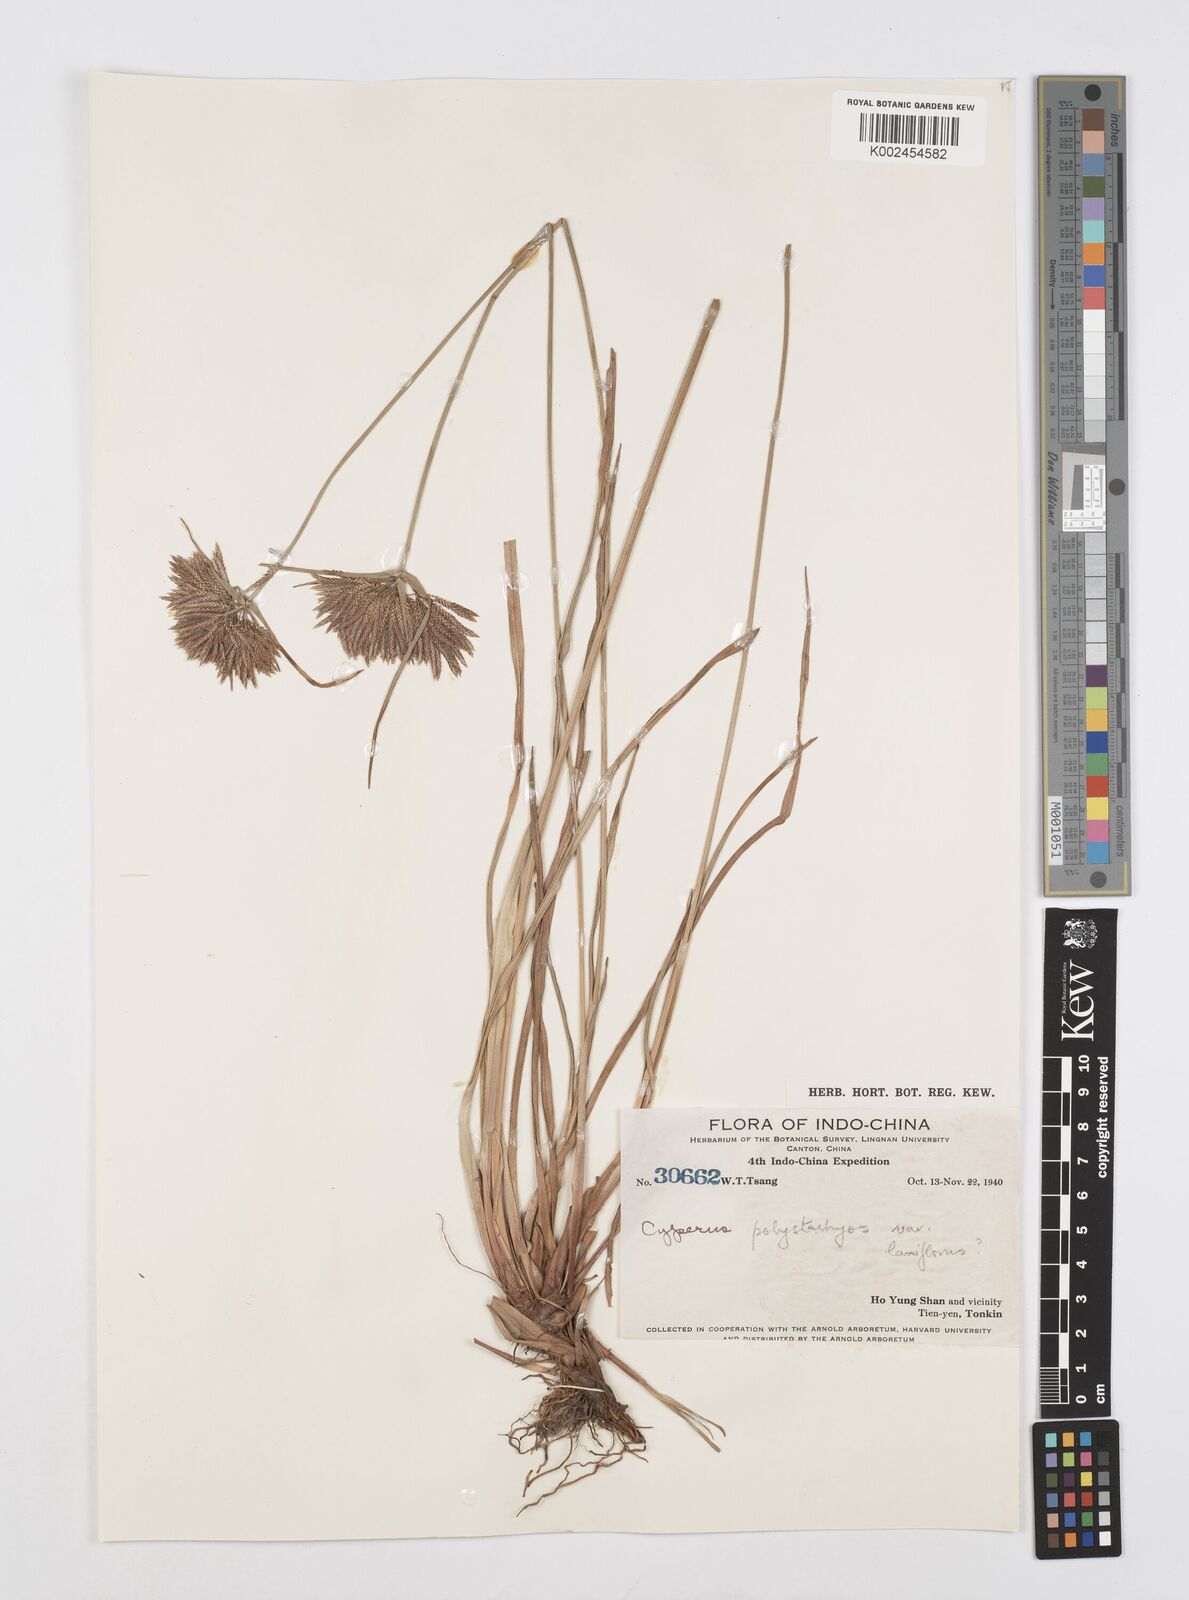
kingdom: Plantae
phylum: Tracheophyta
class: Liliopsida
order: Poales
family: Cyperaceae
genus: Cyperus
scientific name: Cyperus polystachyos
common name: Bunchy flat sedge
